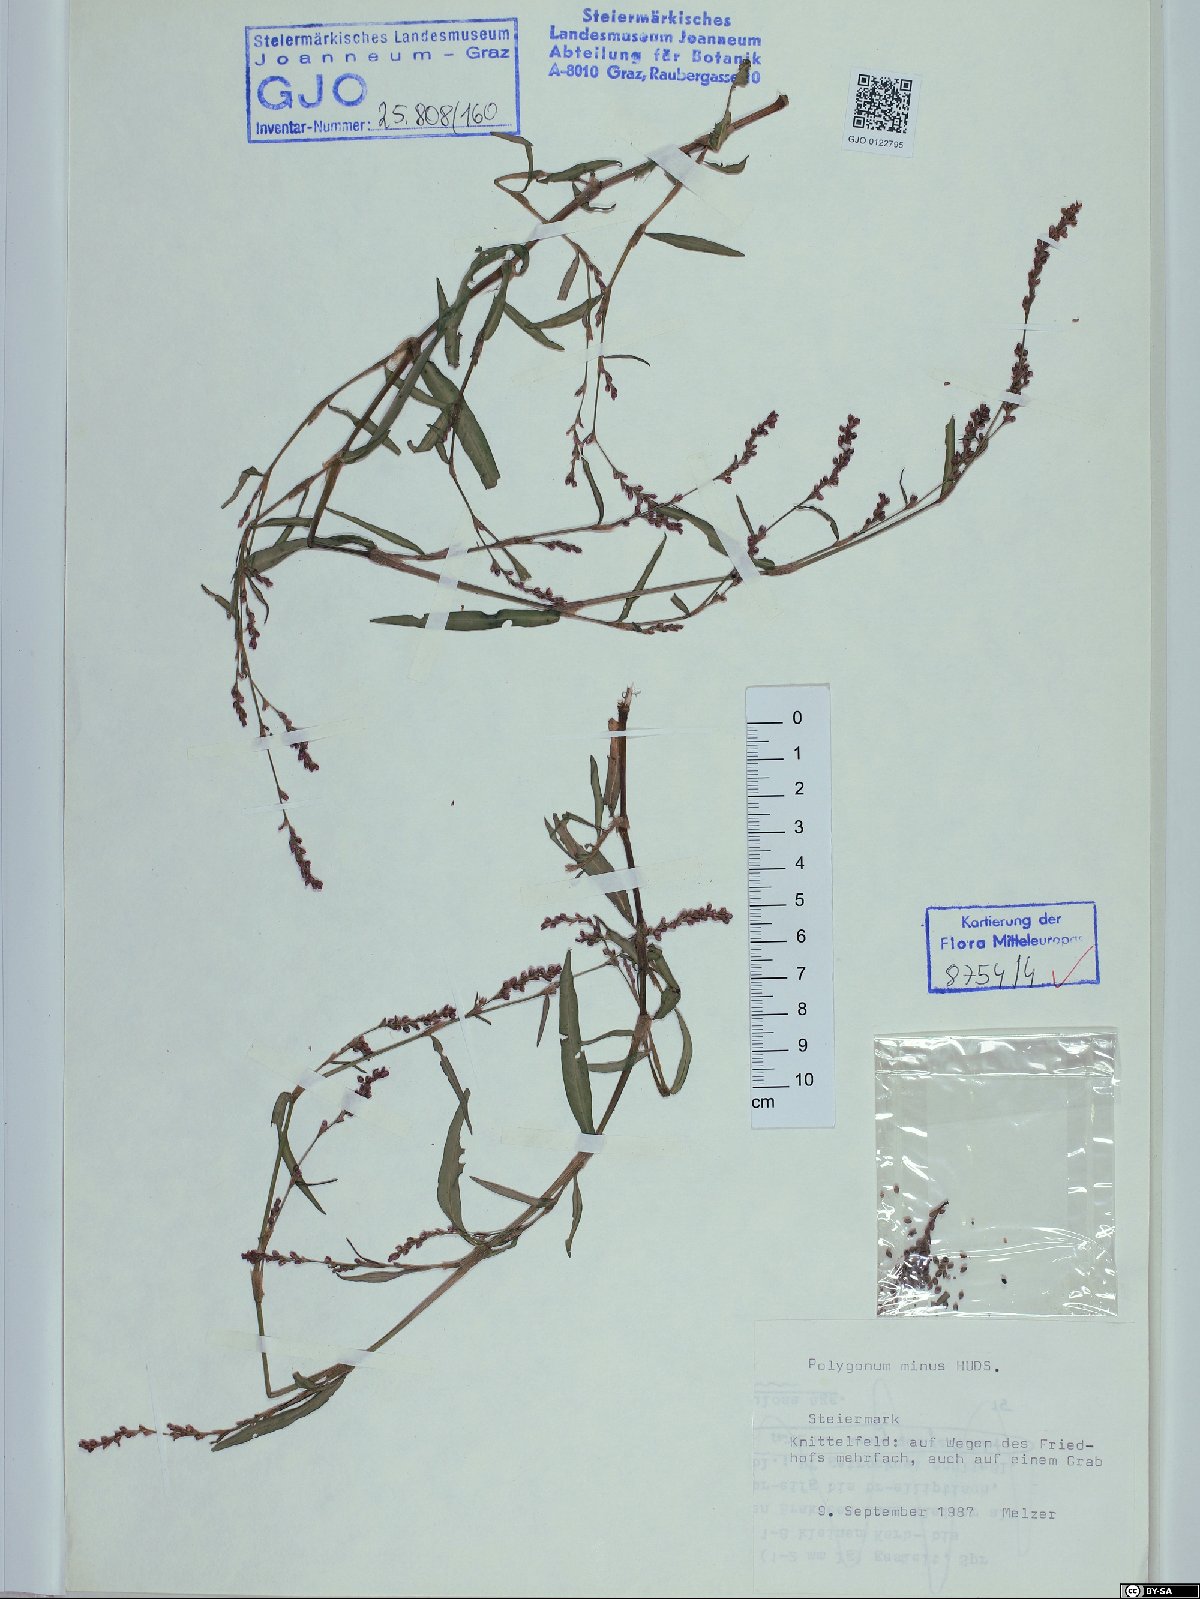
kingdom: Plantae
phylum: Tracheophyta
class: Magnoliopsida
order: Caryophyllales
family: Polygonaceae
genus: Persicaria
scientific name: Persicaria minor
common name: Small water-pepper
